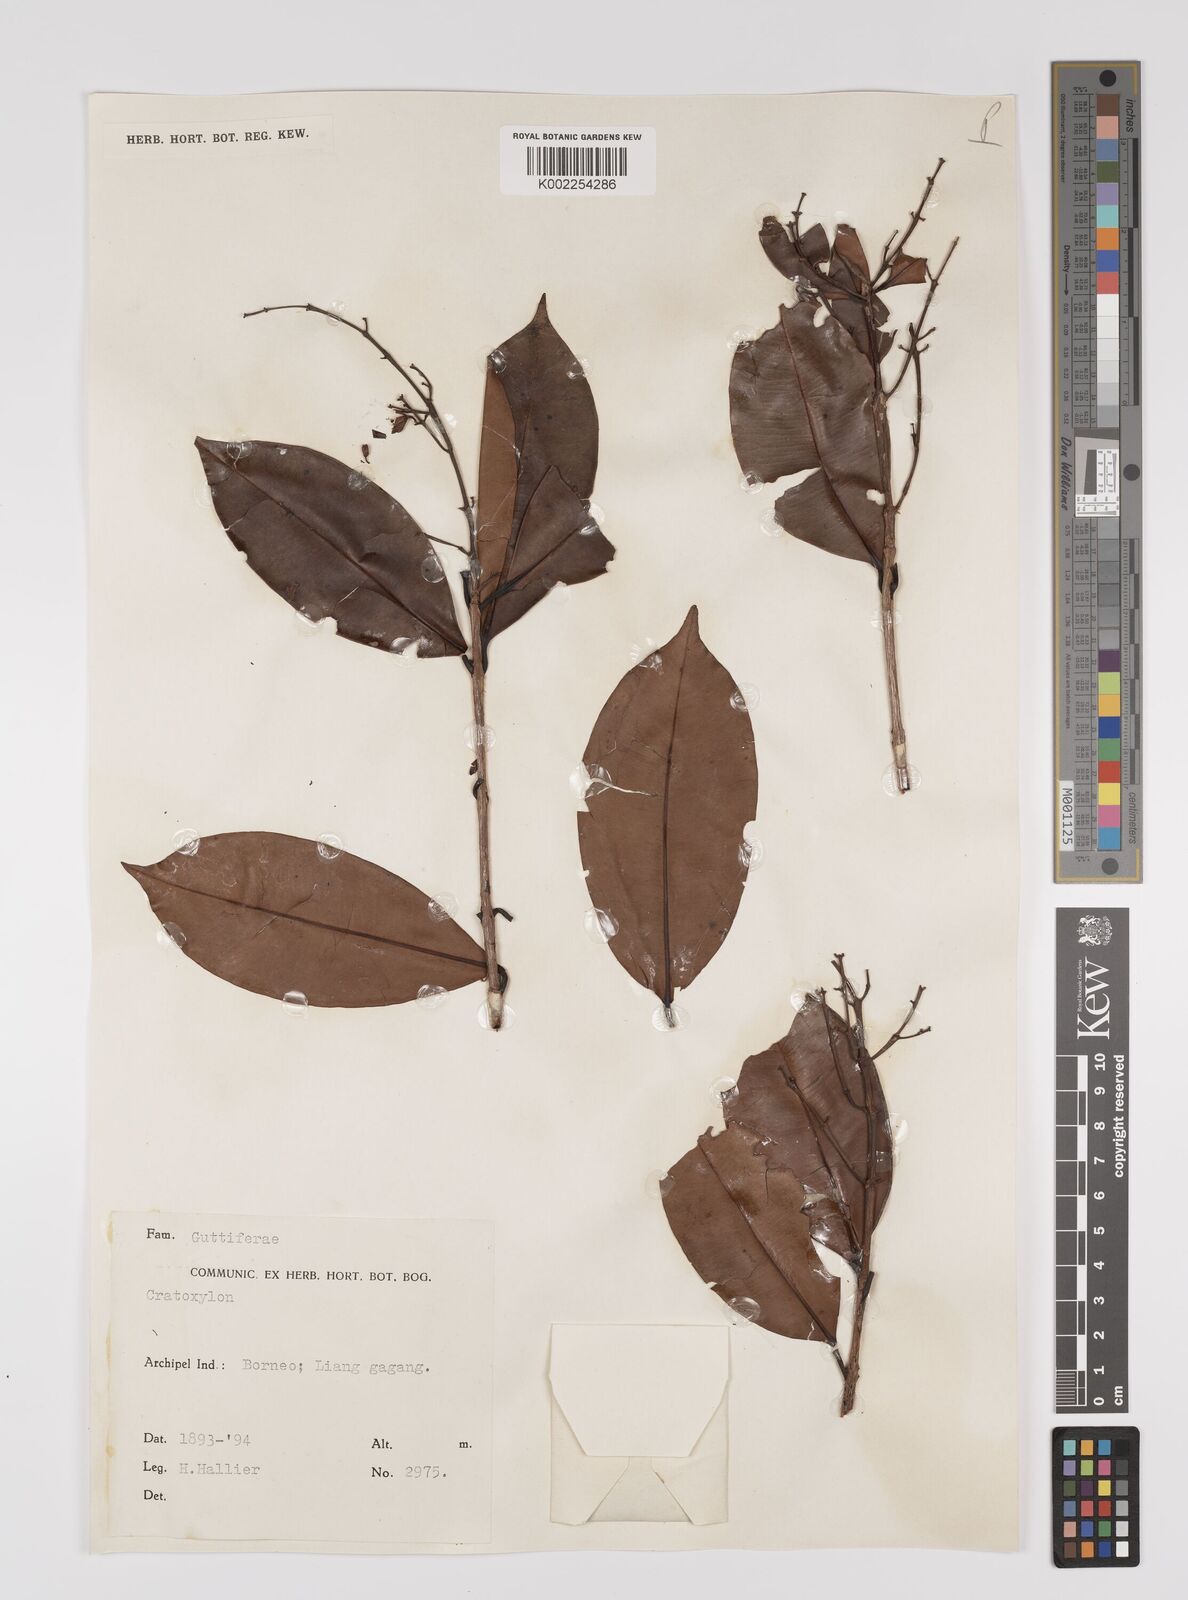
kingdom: Plantae
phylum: Tracheophyta
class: Magnoliopsida
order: Malpighiales
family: Hypericaceae
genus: Cratoxylum
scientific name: Cratoxylum
